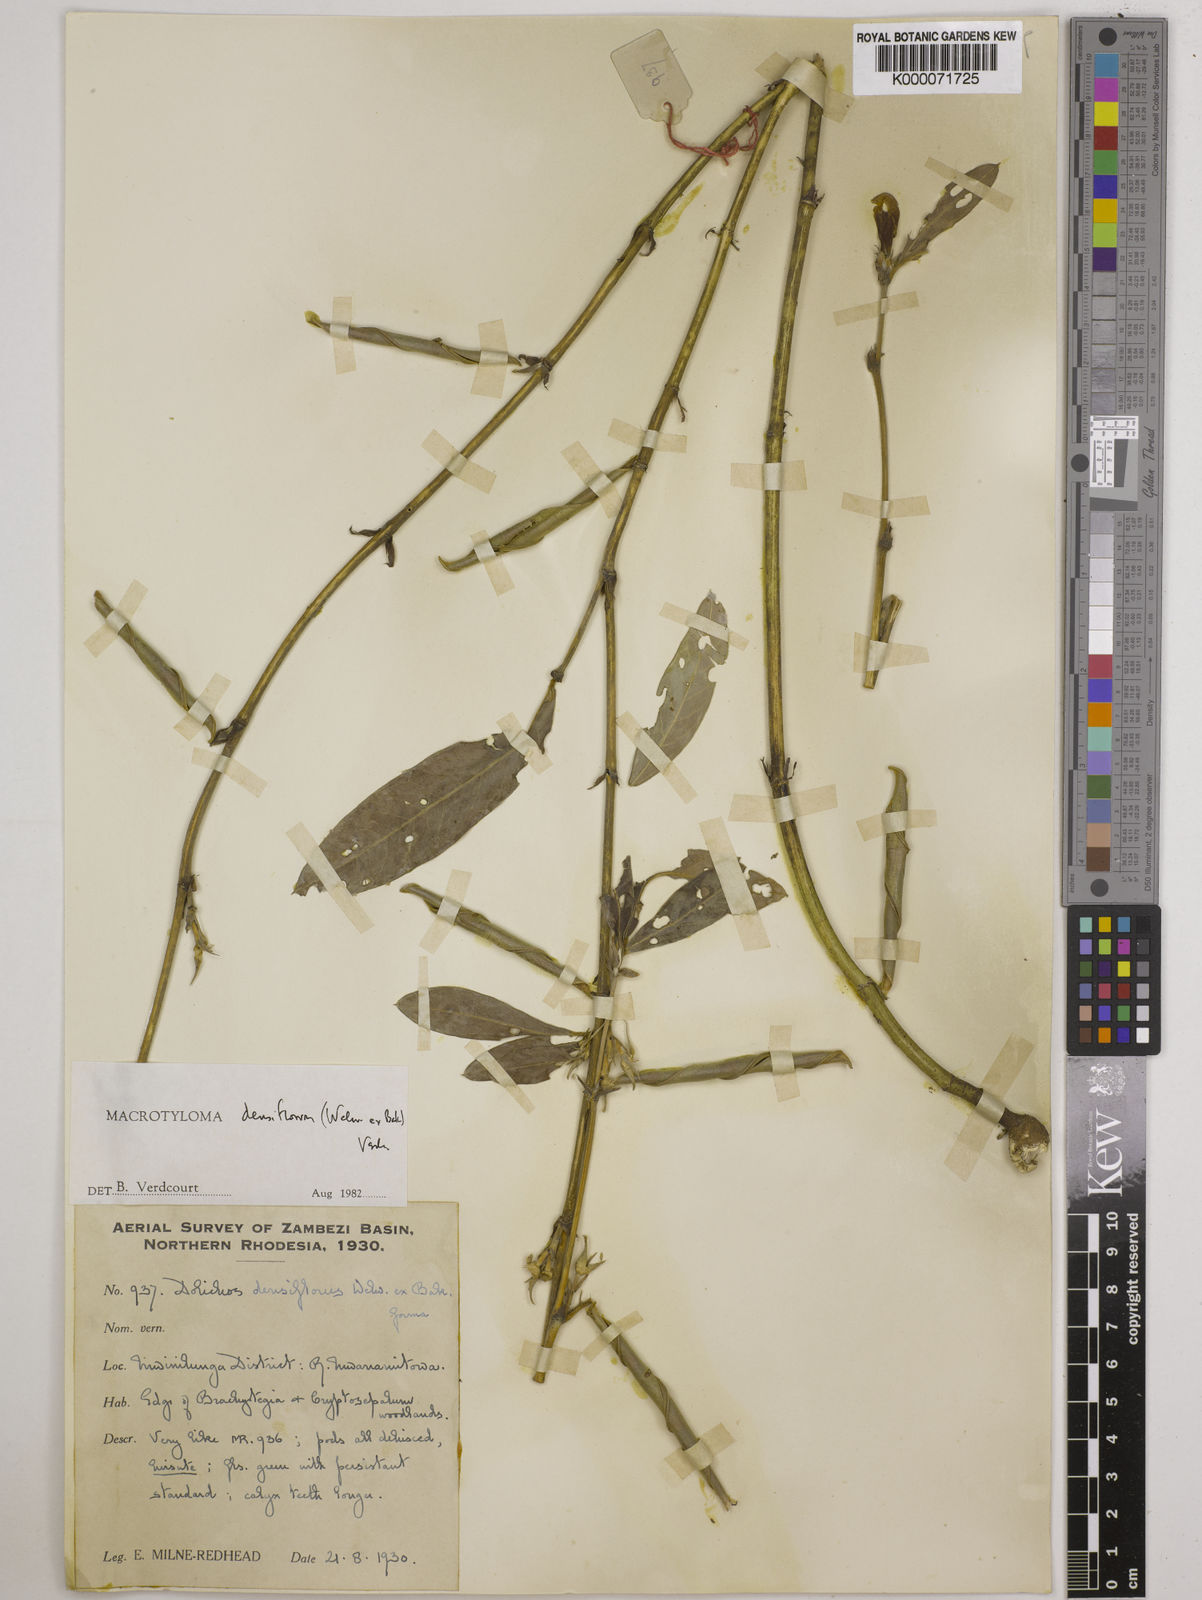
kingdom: Plantae
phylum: Tracheophyta
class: Magnoliopsida
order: Fabales
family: Fabaceae
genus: Macrotyloma
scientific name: Macrotyloma densiflorum
